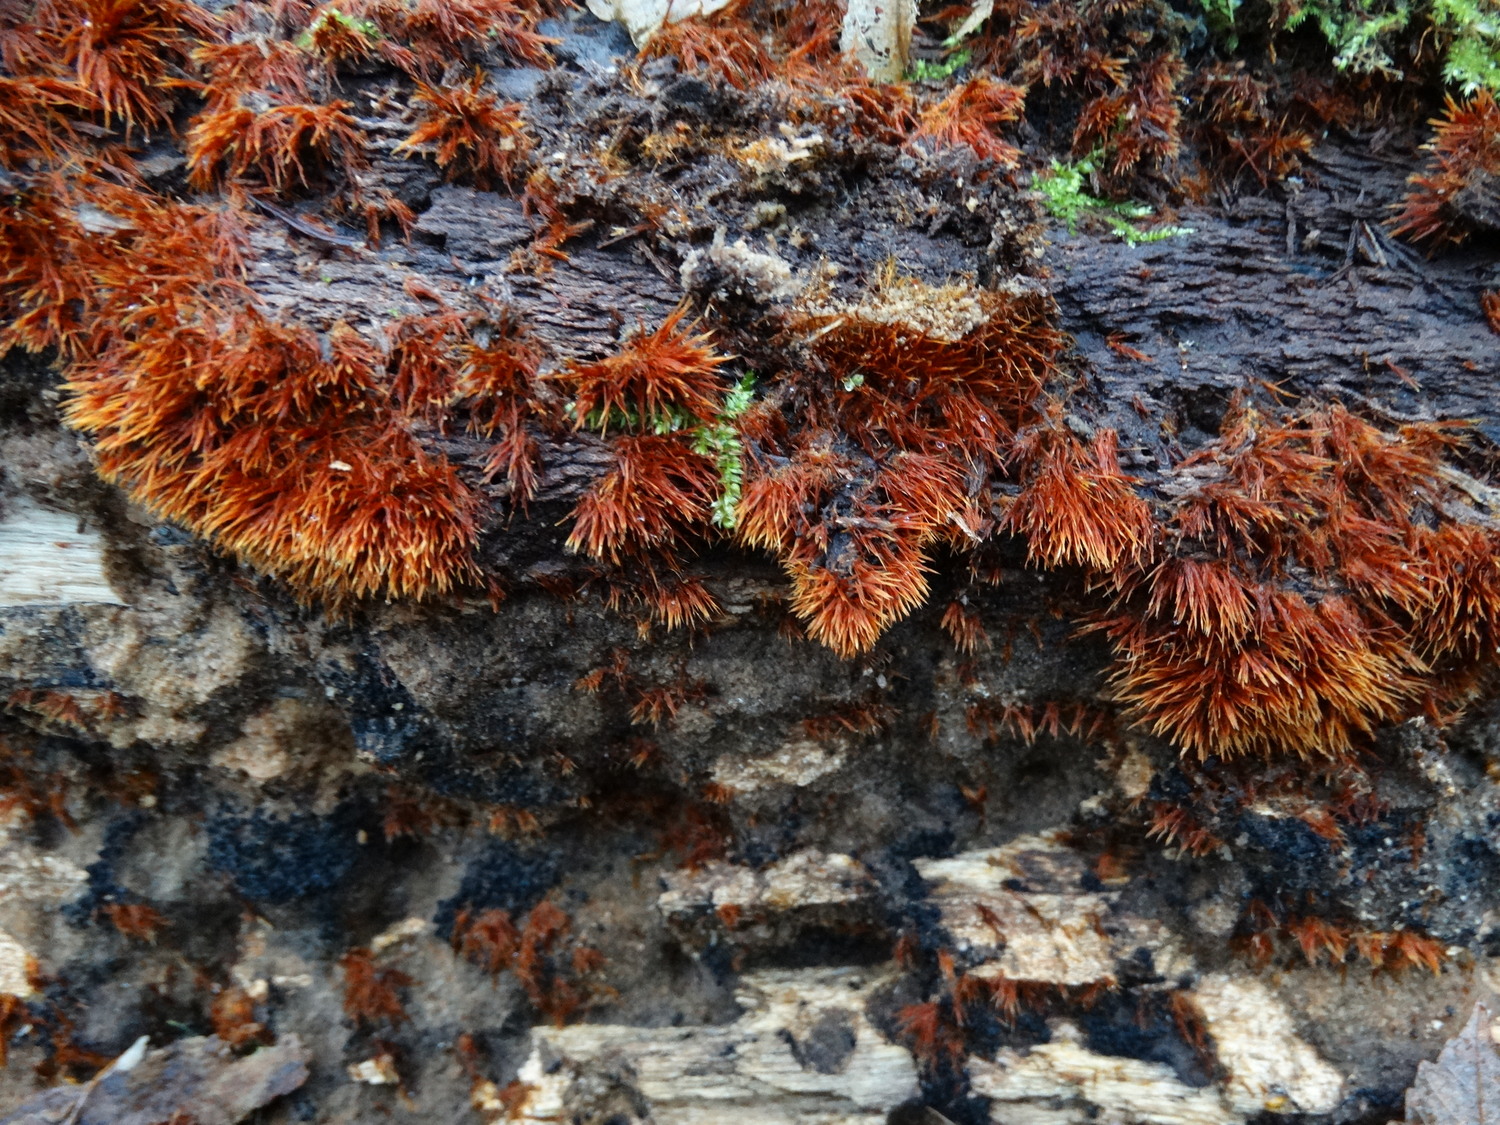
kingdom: Fungi
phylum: Basidiomycota
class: Agaricomycetes
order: Agaricales
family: Psathyrellaceae
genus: Ozonium
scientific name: Ozonium
